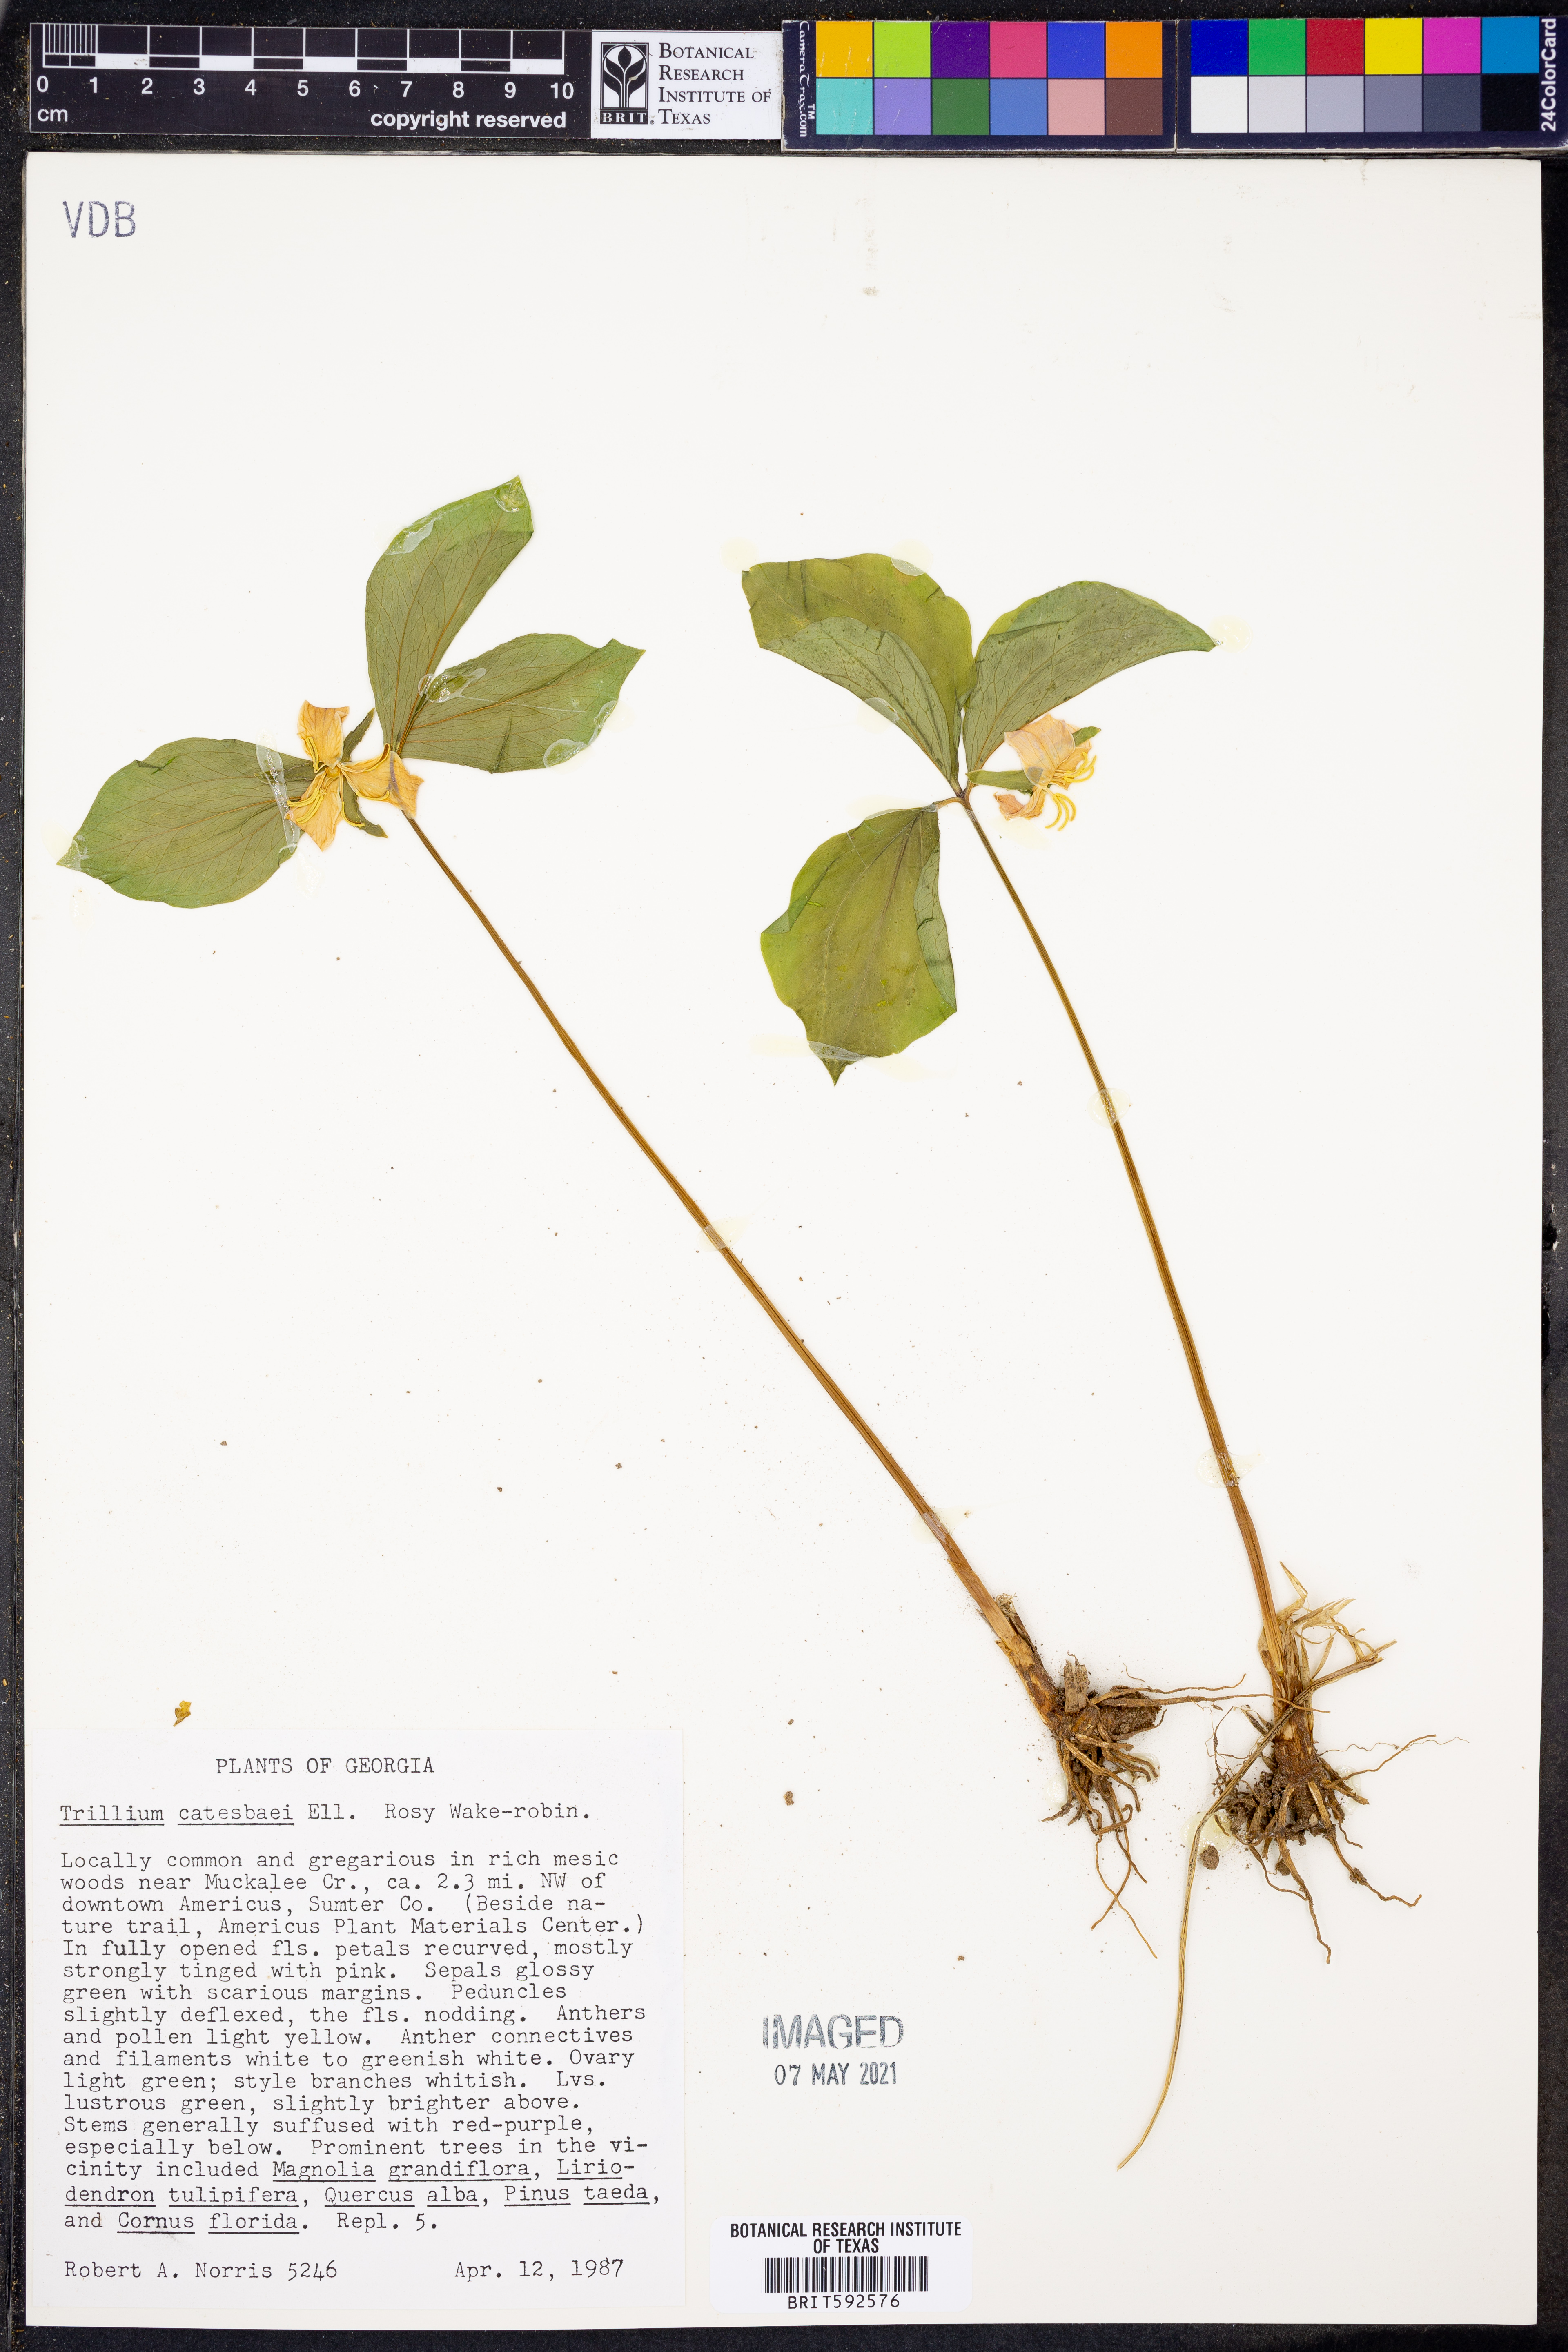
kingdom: Plantae
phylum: Tracheophyta
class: Liliopsida
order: Liliales
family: Melanthiaceae
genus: Trillium
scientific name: Trillium catesbaei
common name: Bashful trillium
